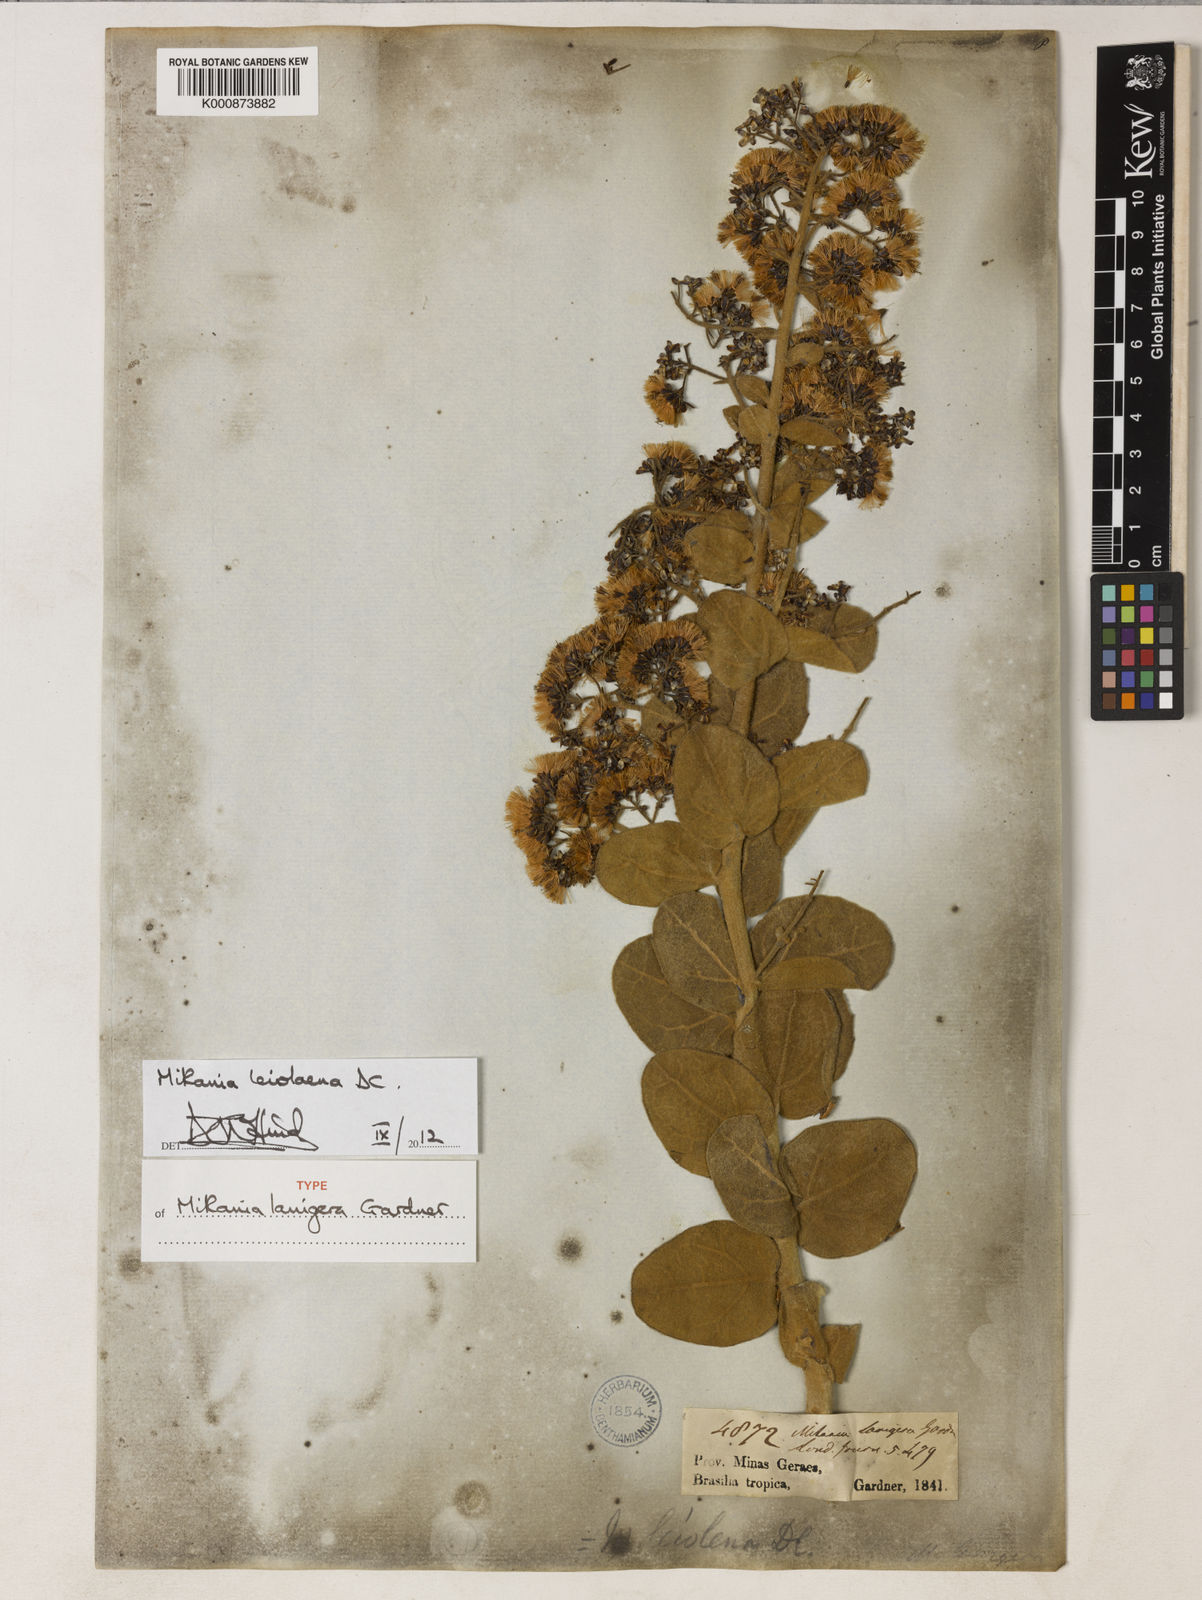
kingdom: Plantae
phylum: Tracheophyta
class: Magnoliopsida
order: Asterales
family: Asteraceae
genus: Mikania
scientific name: Mikania leiolaena
